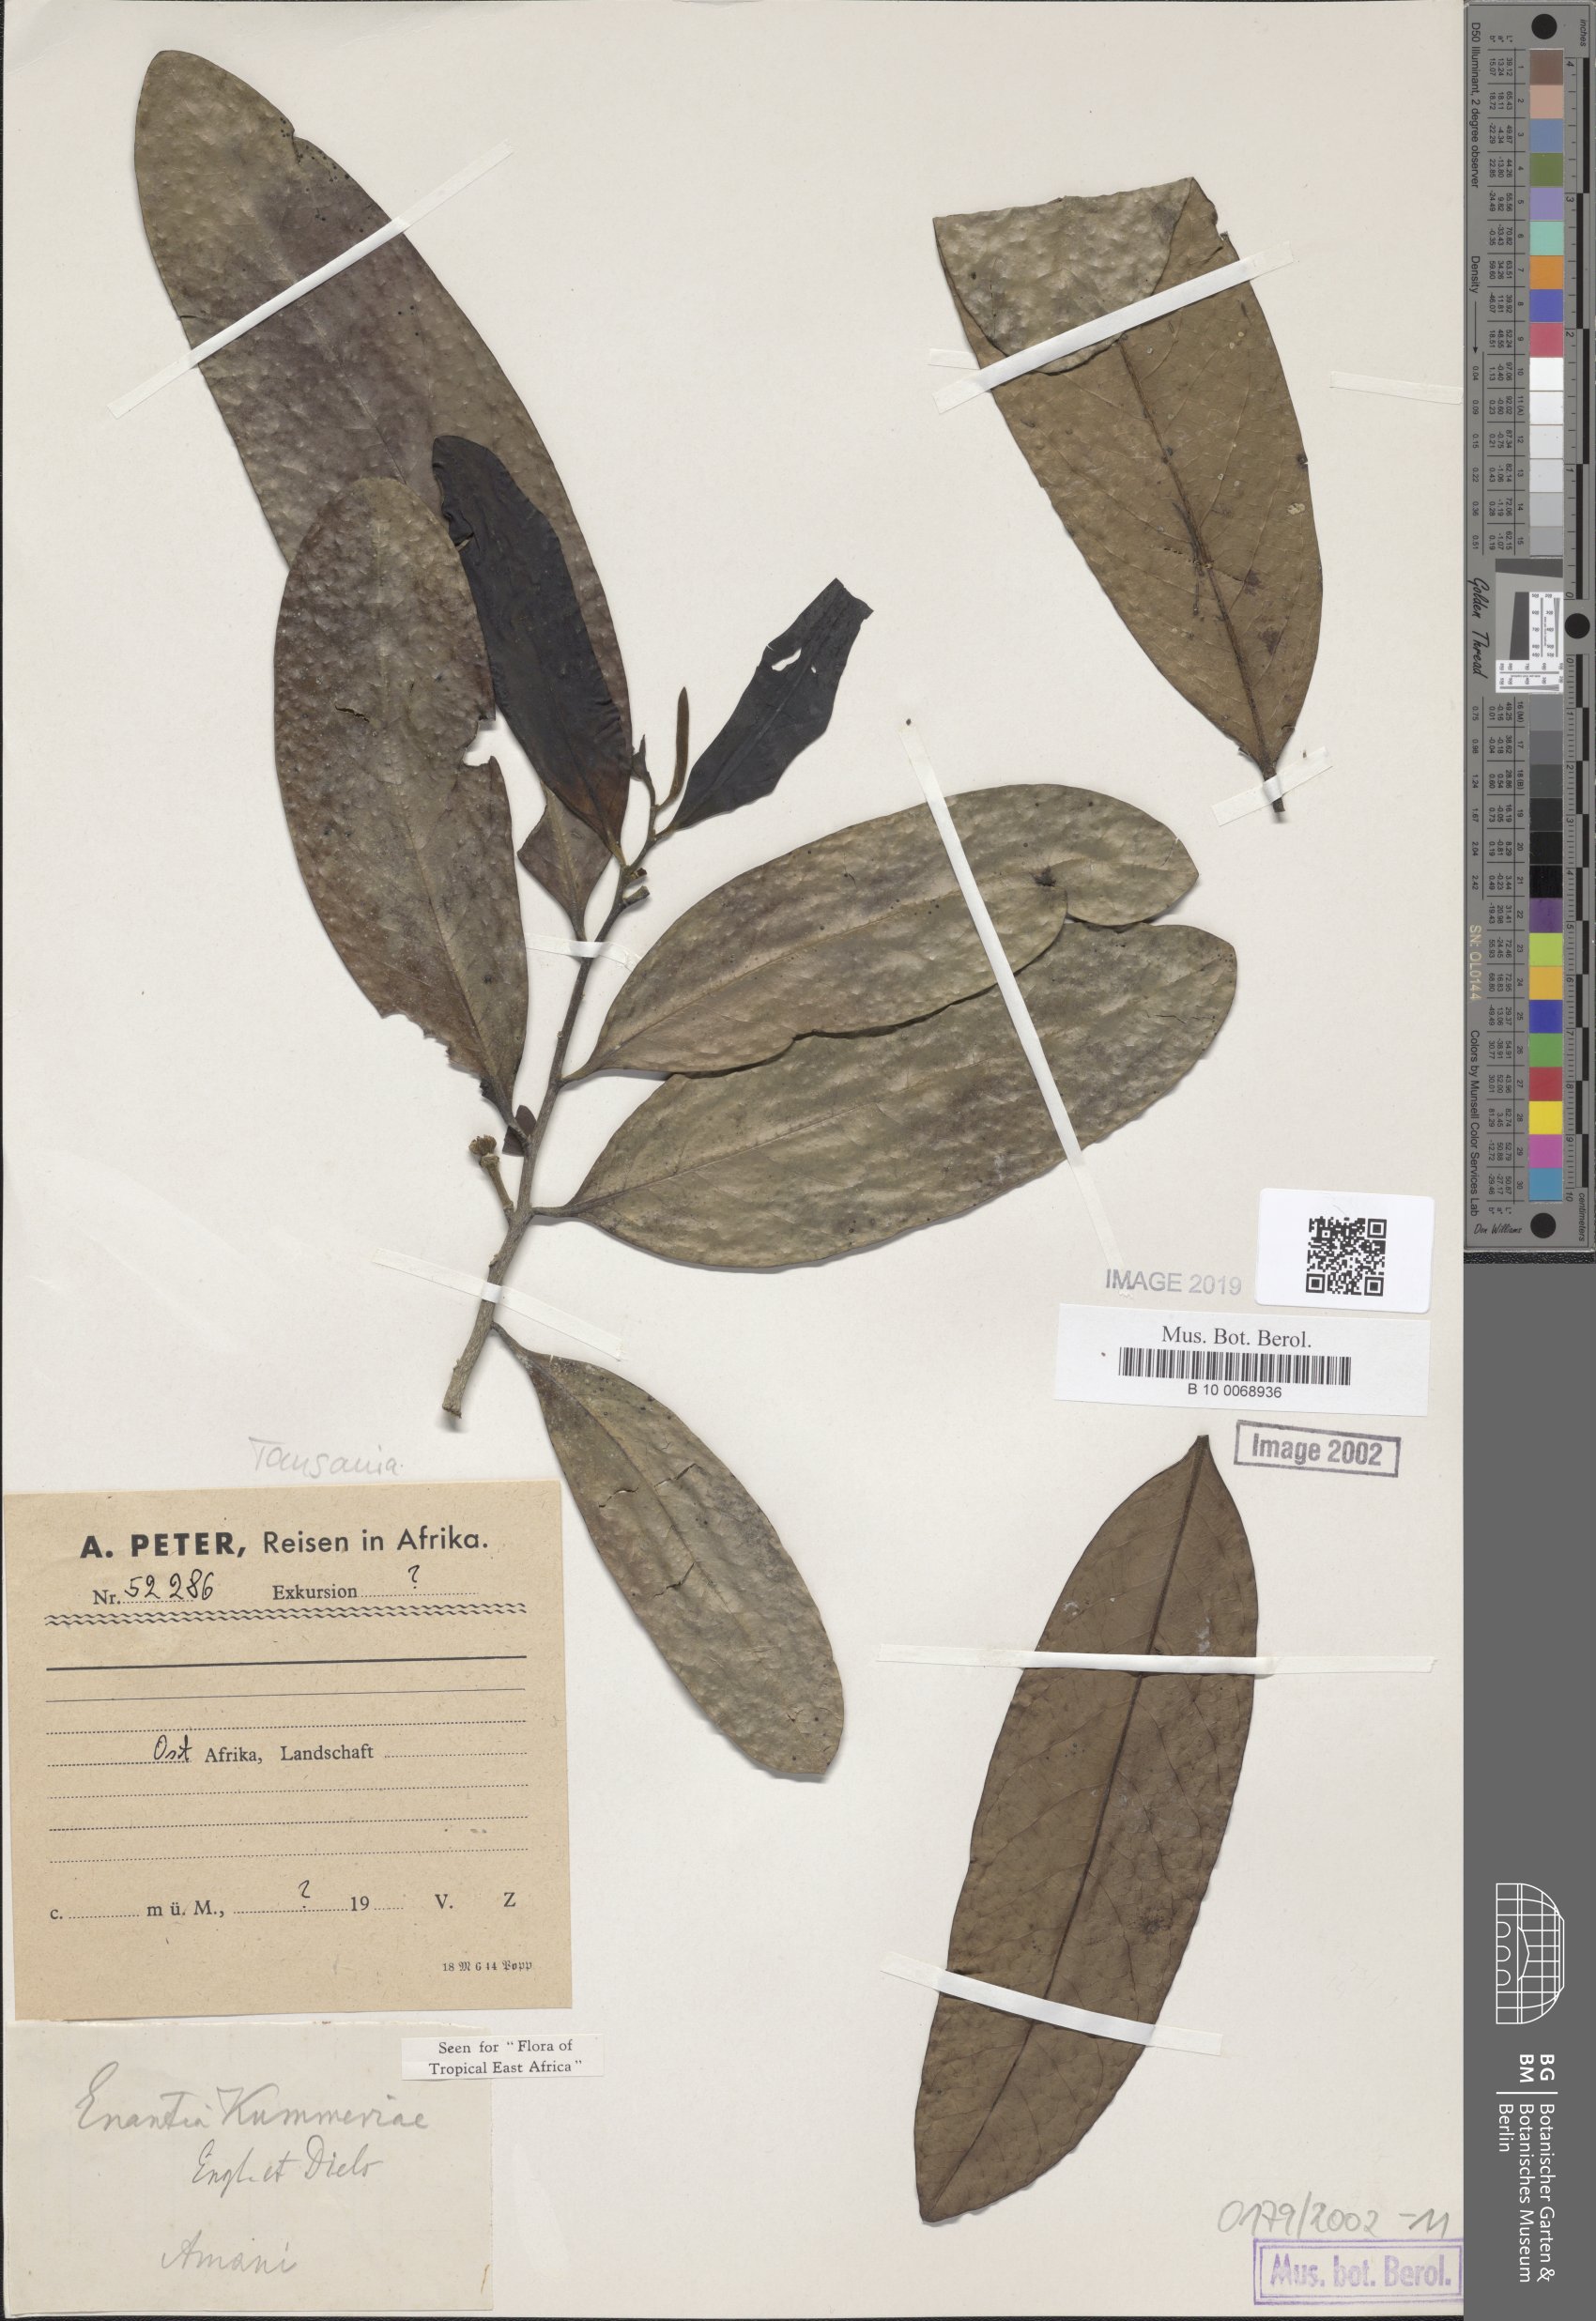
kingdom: Plantae
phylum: Tracheophyta
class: Magnoliopsida
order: Magnoliales
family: Annonaceae
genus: Annickia
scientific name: Annickia kummerae
